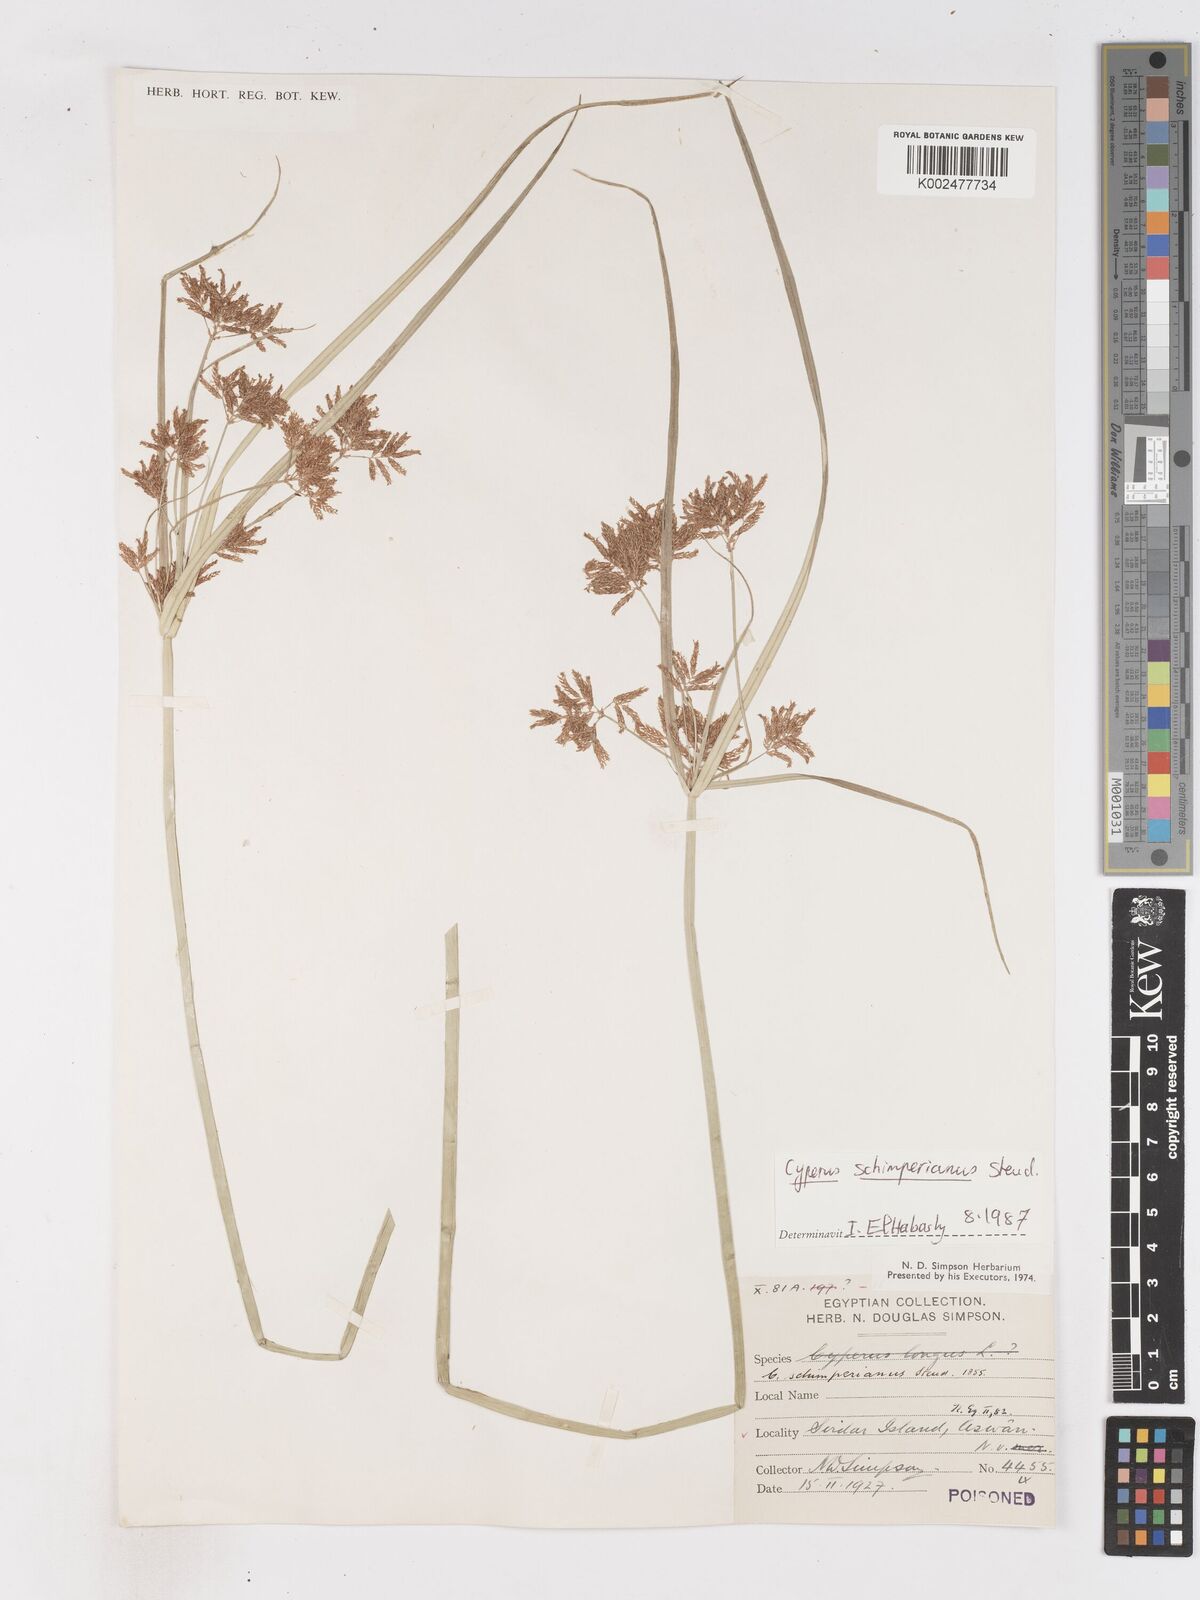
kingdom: Plantae
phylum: Tracheophyta
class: Liliopsida
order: Poales
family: Cyperaceae
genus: Cyperus
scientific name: Cyperus schimperianus
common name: Schimper flatsedge
